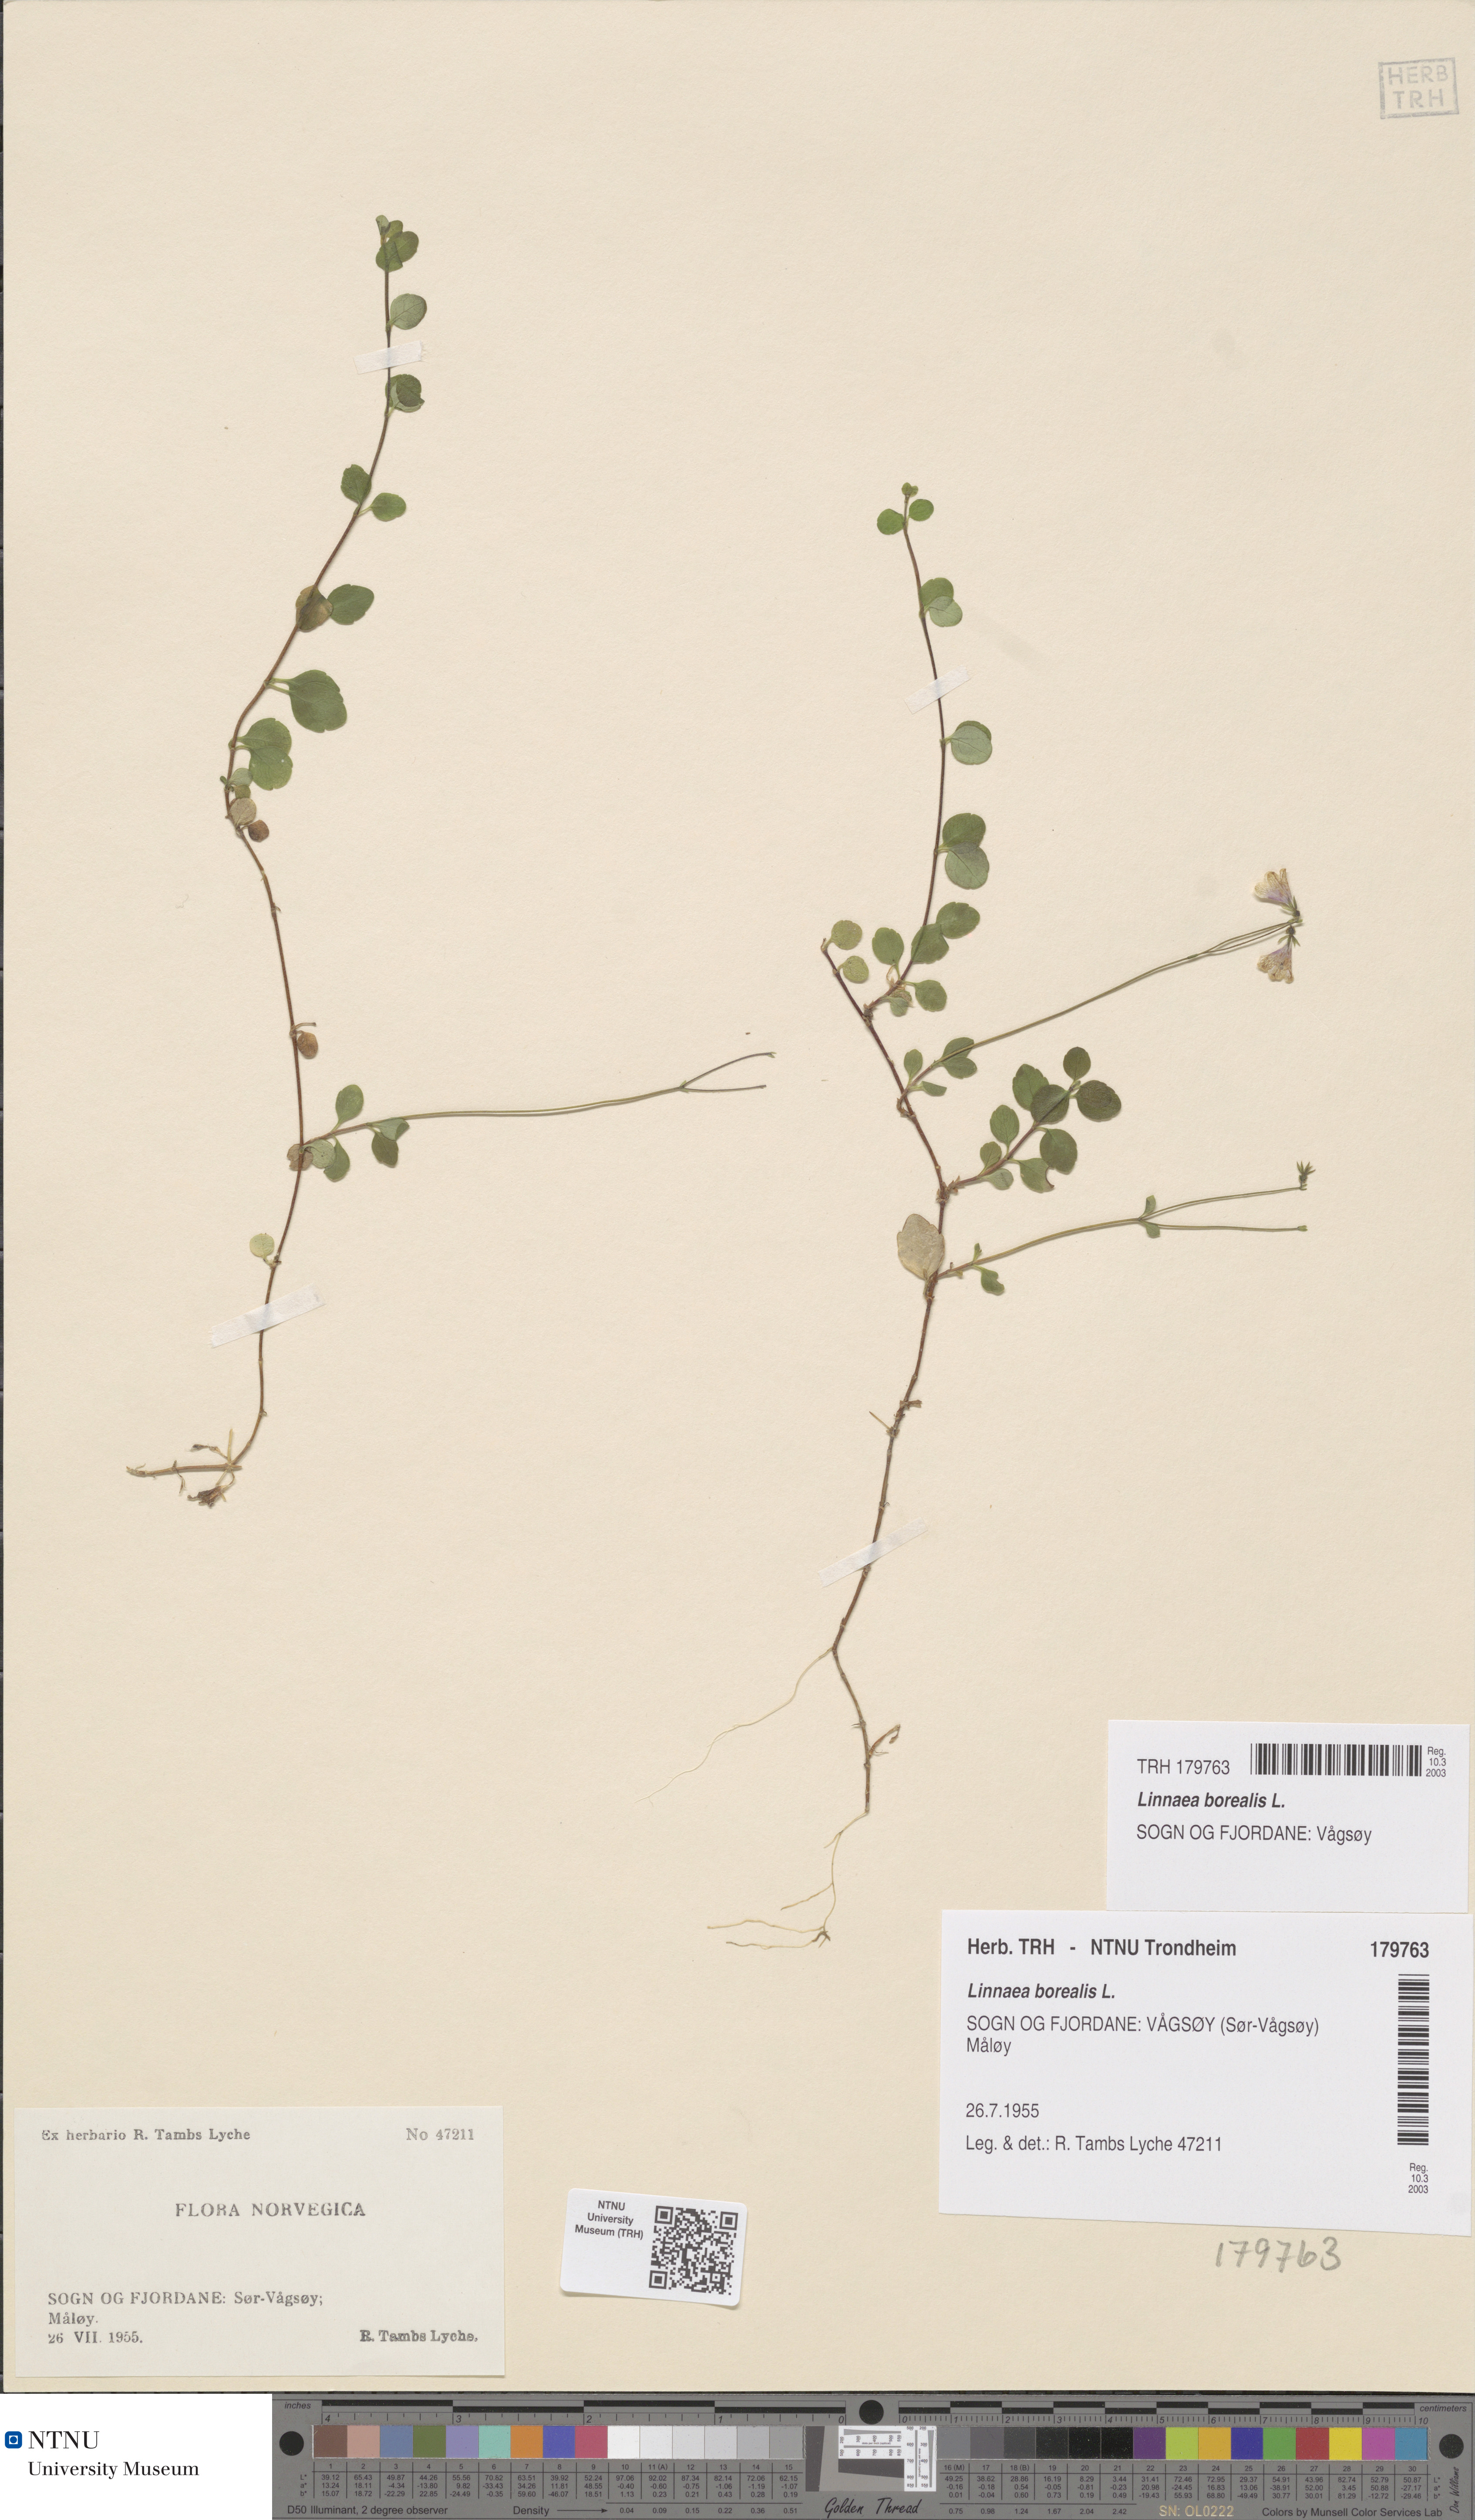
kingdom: Plantae
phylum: Tracheophyta
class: Magnoliopsida
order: Dipsacales
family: Caprifoliaceae
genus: Linnaea
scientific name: Linnaea borealis
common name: Twinflower
